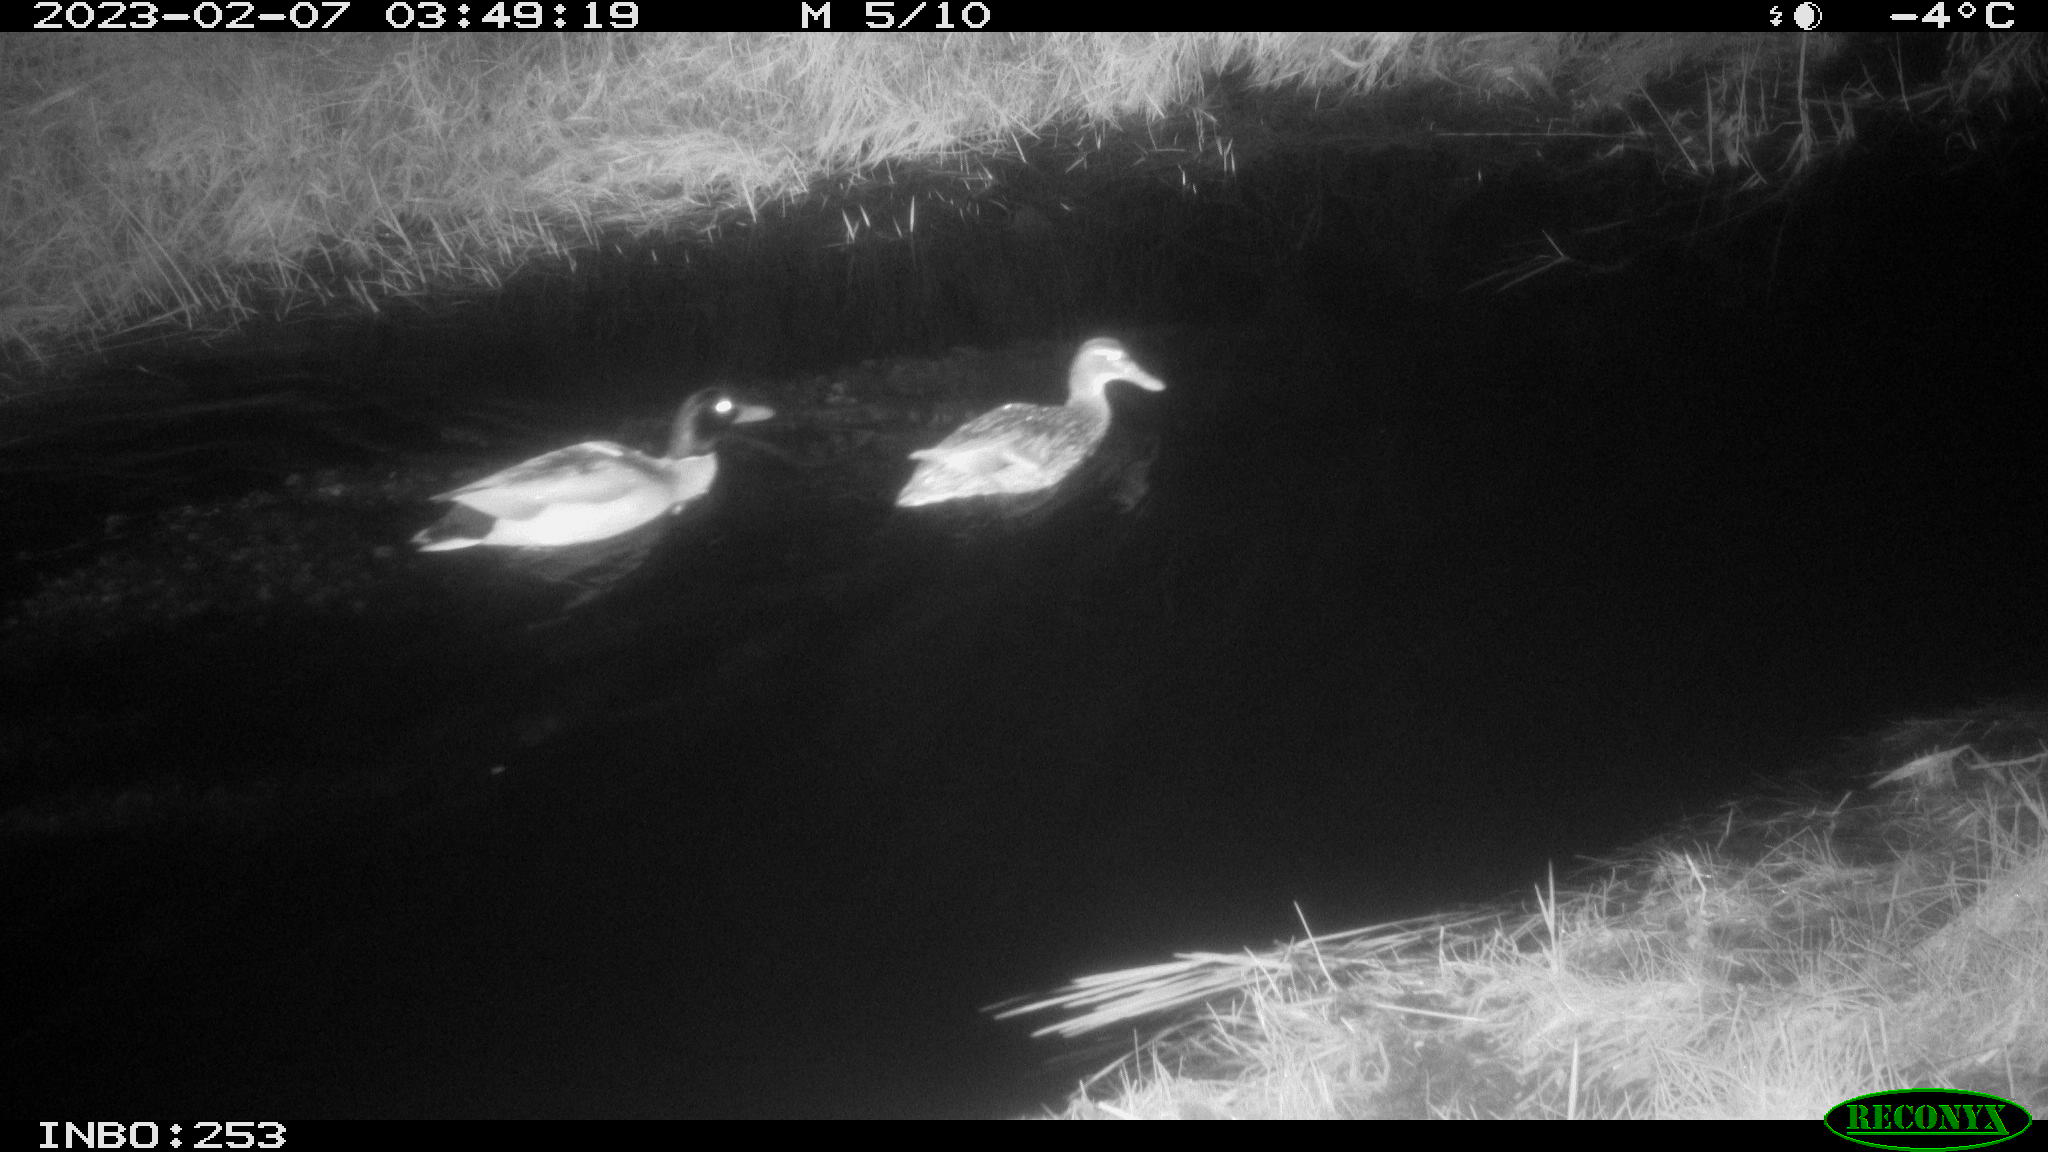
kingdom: Animalia
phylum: Chordata
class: Aves
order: Anseriformes
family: Anatidae
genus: Anas
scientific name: Anas
